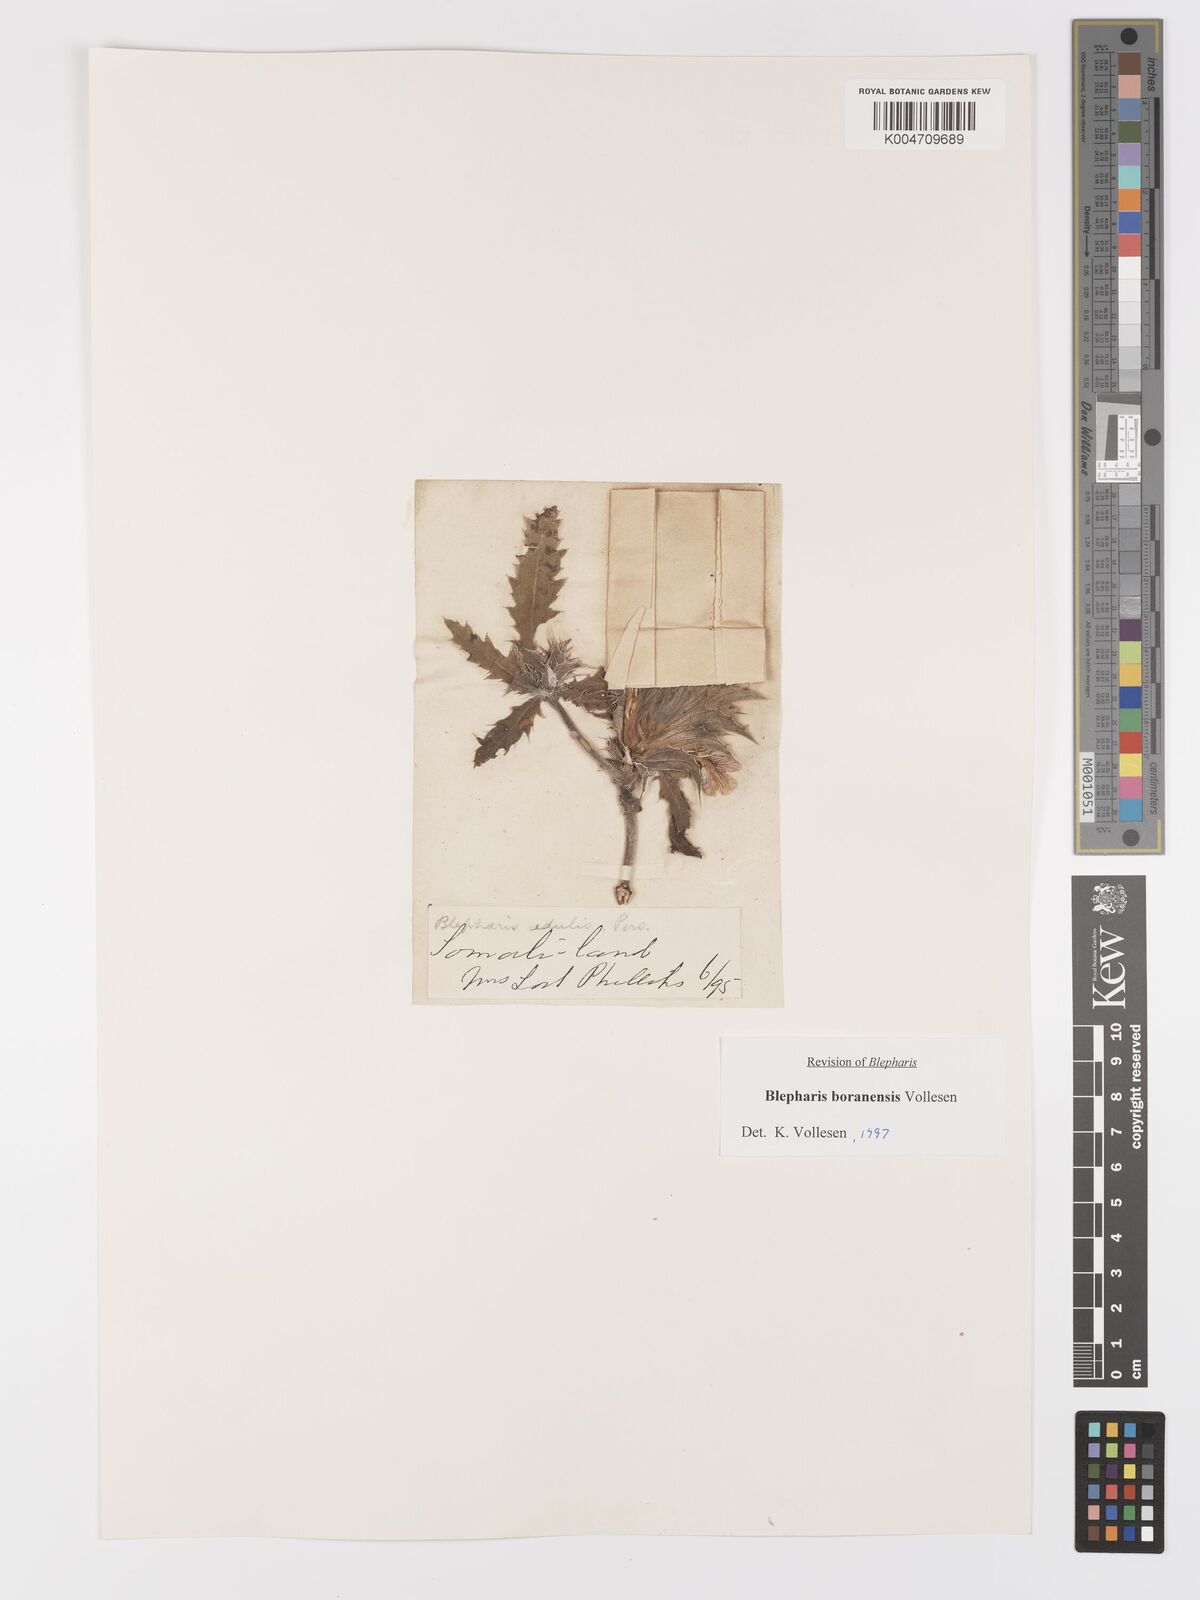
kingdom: Plantae
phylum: Tracheophyta
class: Magnoliopsida
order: Lamiales
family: Acanthaceae
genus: Blepharis
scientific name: Blepharis boranensis
